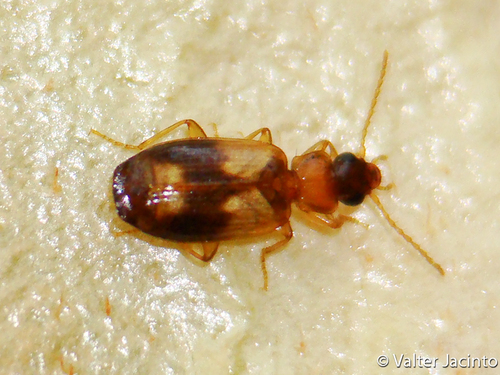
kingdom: Animalia
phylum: Arthropoda
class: Insecta
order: Coleoptera
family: Carabidae
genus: Philorhizus
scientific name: Philorhizus
